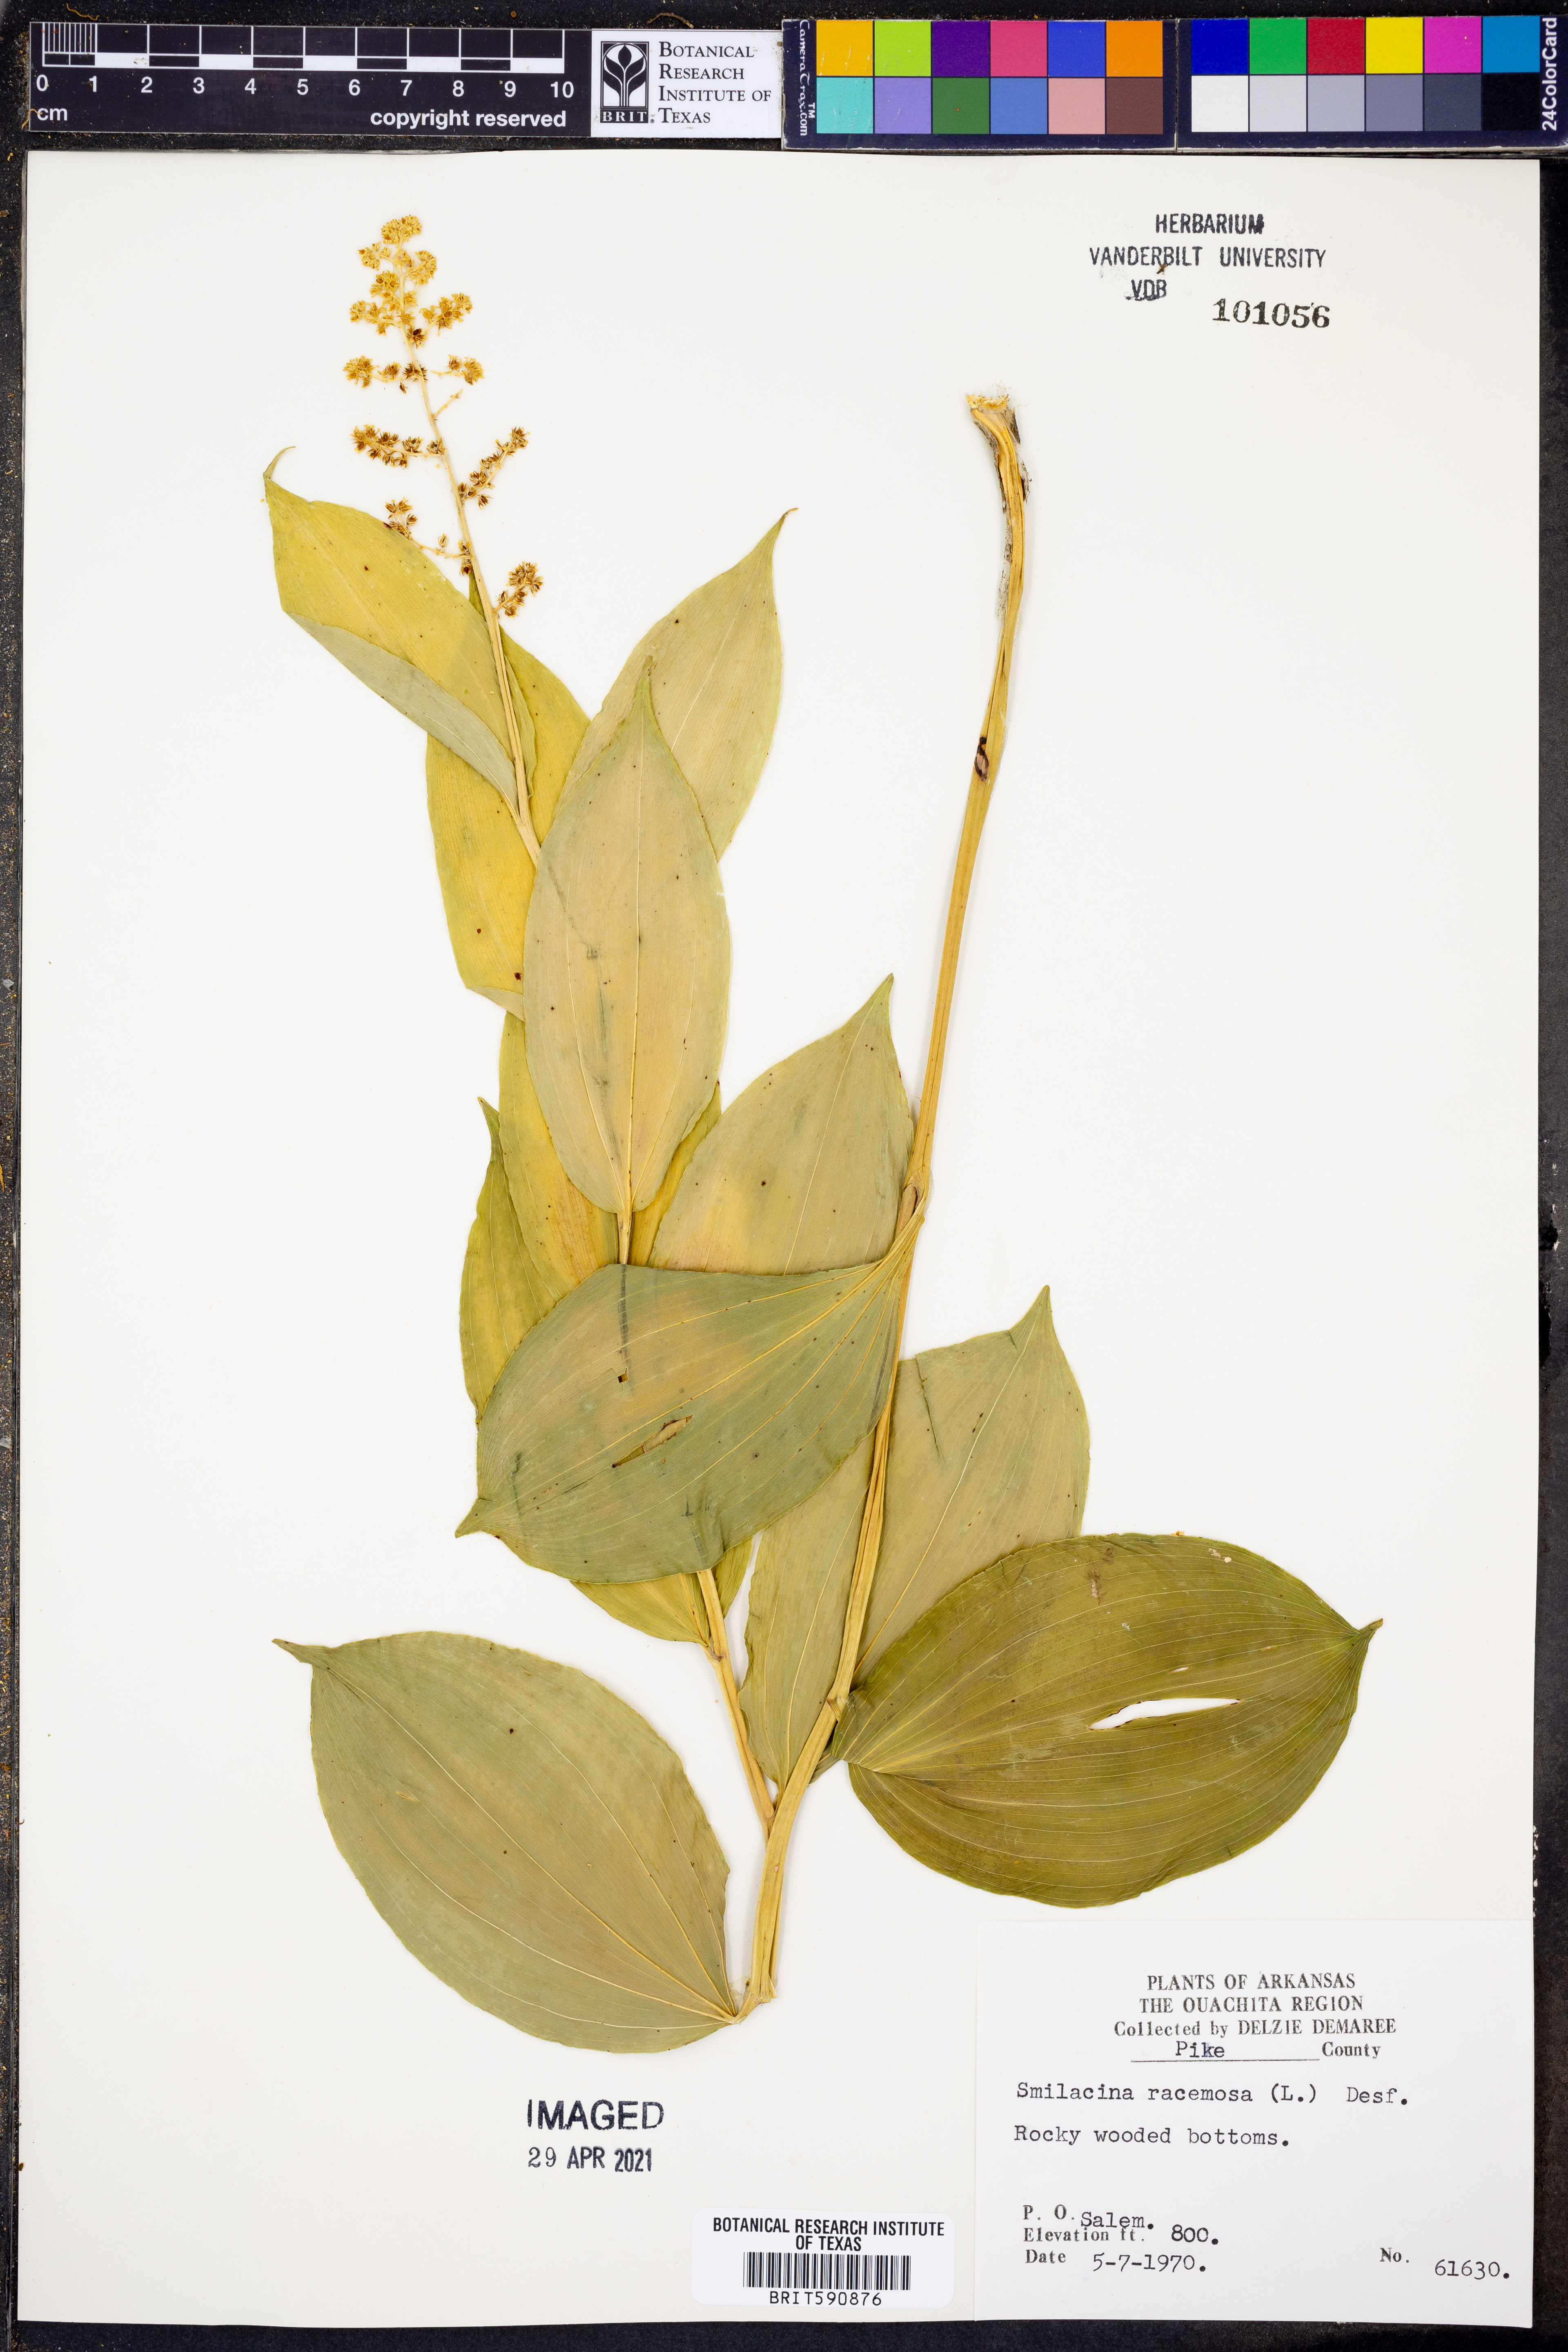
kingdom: Plantae
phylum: Tracheophyta
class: Liliopsida
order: Asparagales
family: Asparagaceae
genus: Maianthemum
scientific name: Maianthemum racemosum
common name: False spikenard
